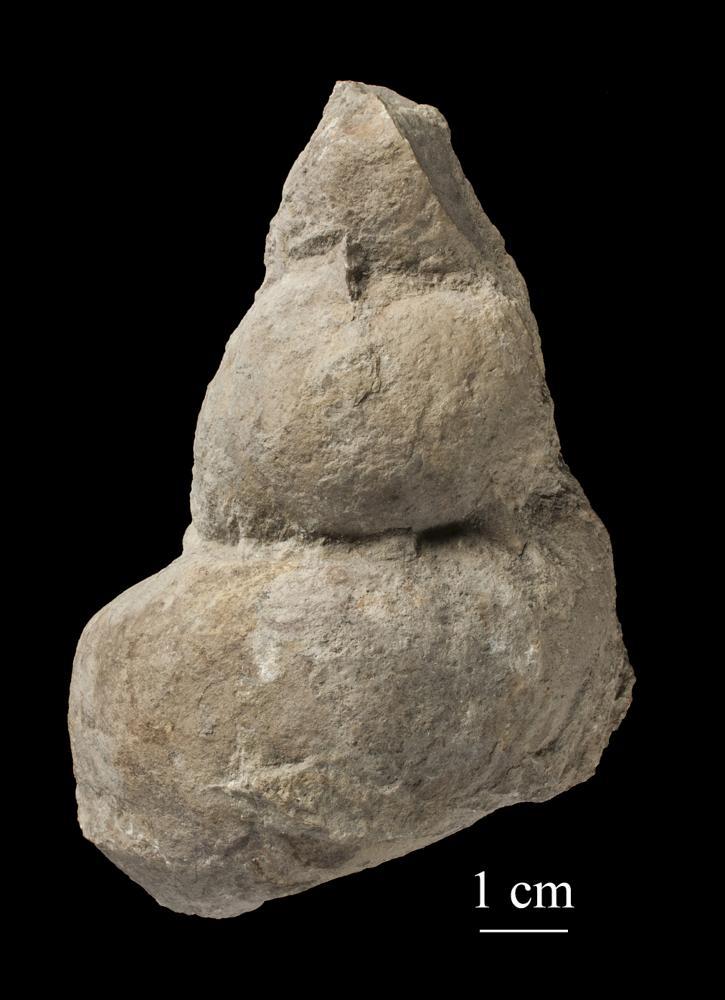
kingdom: Animalia
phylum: Mollusca
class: Gastropoda
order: Pleurotomariida
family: Murchisoniidae
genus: Murchisonia
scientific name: Murchisonia insignis
